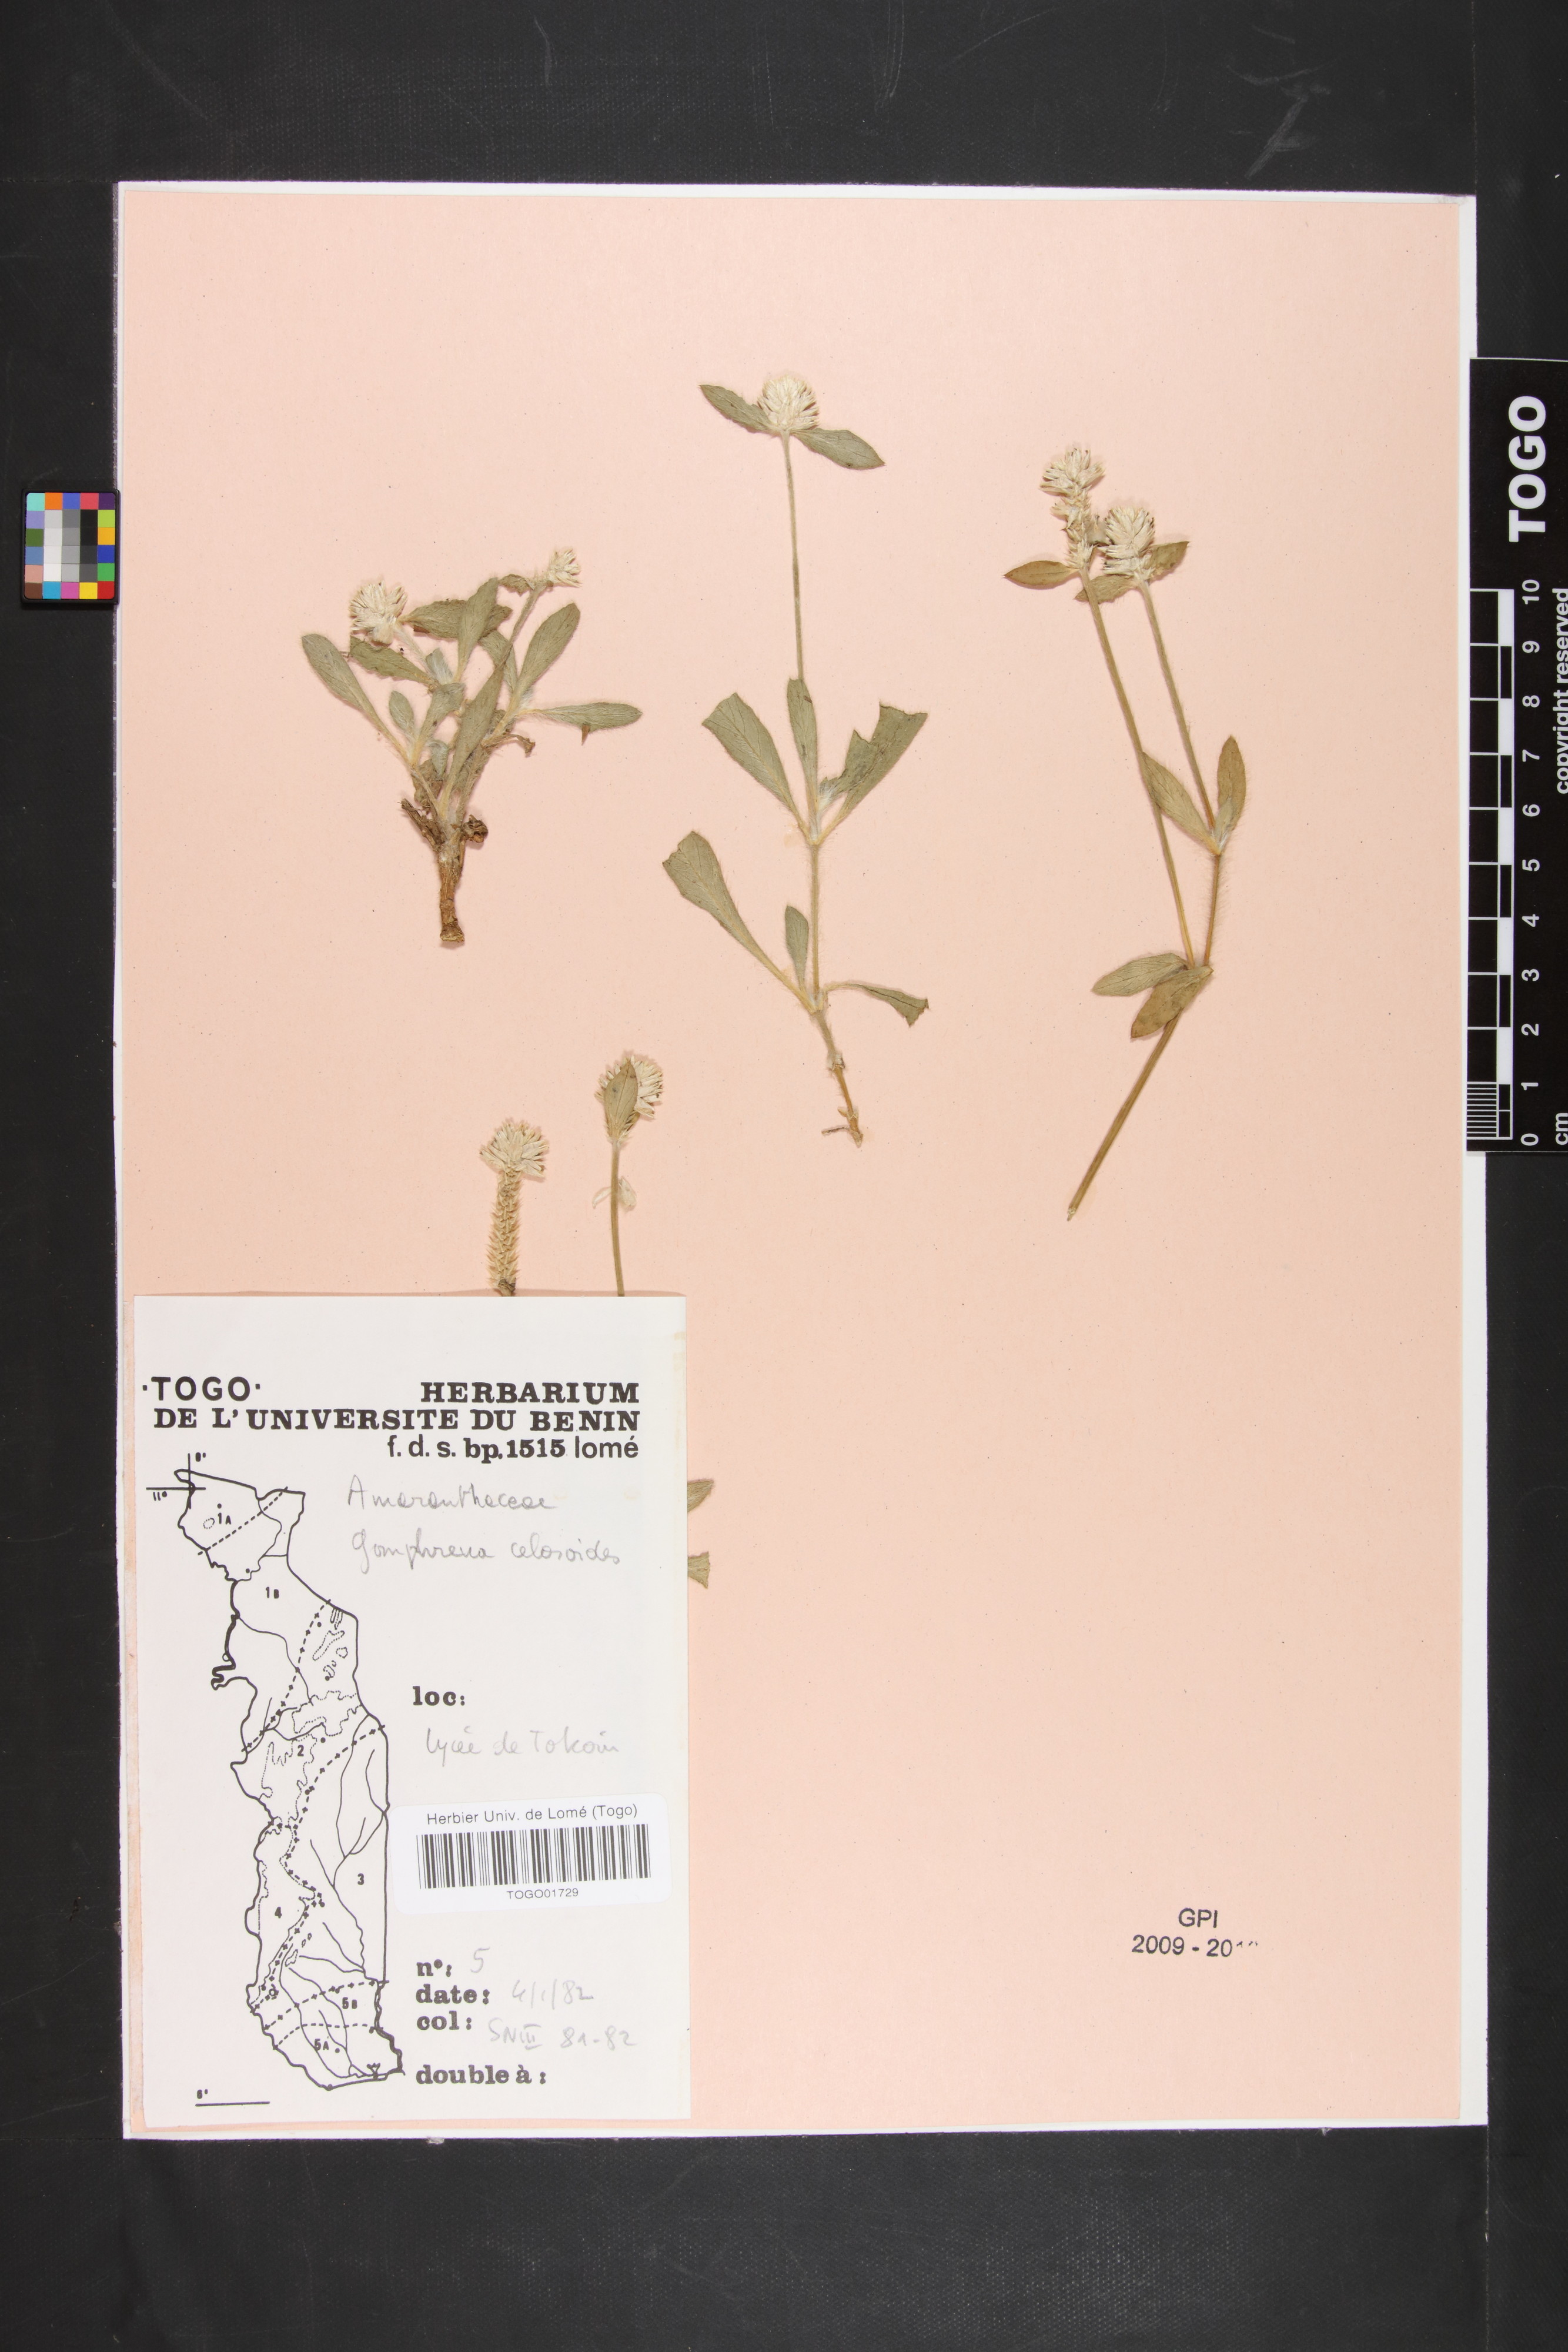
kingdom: Plantae
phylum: Tracheophyta
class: Magnoliopsida
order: Caryophyllales
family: Amaranthaceae
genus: Gomphrena
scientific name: Gomphrena celosioides
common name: Gomphrena-weed
